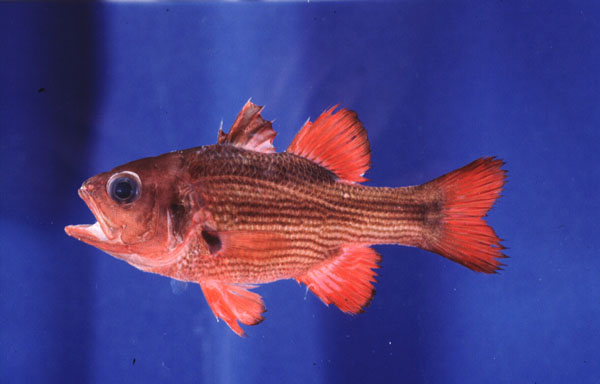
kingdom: Animalia
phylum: Chordata
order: Perciformes
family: Apogonidae
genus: Lepidamia
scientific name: Lepidamia natalensis
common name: Smallscale cardinal
